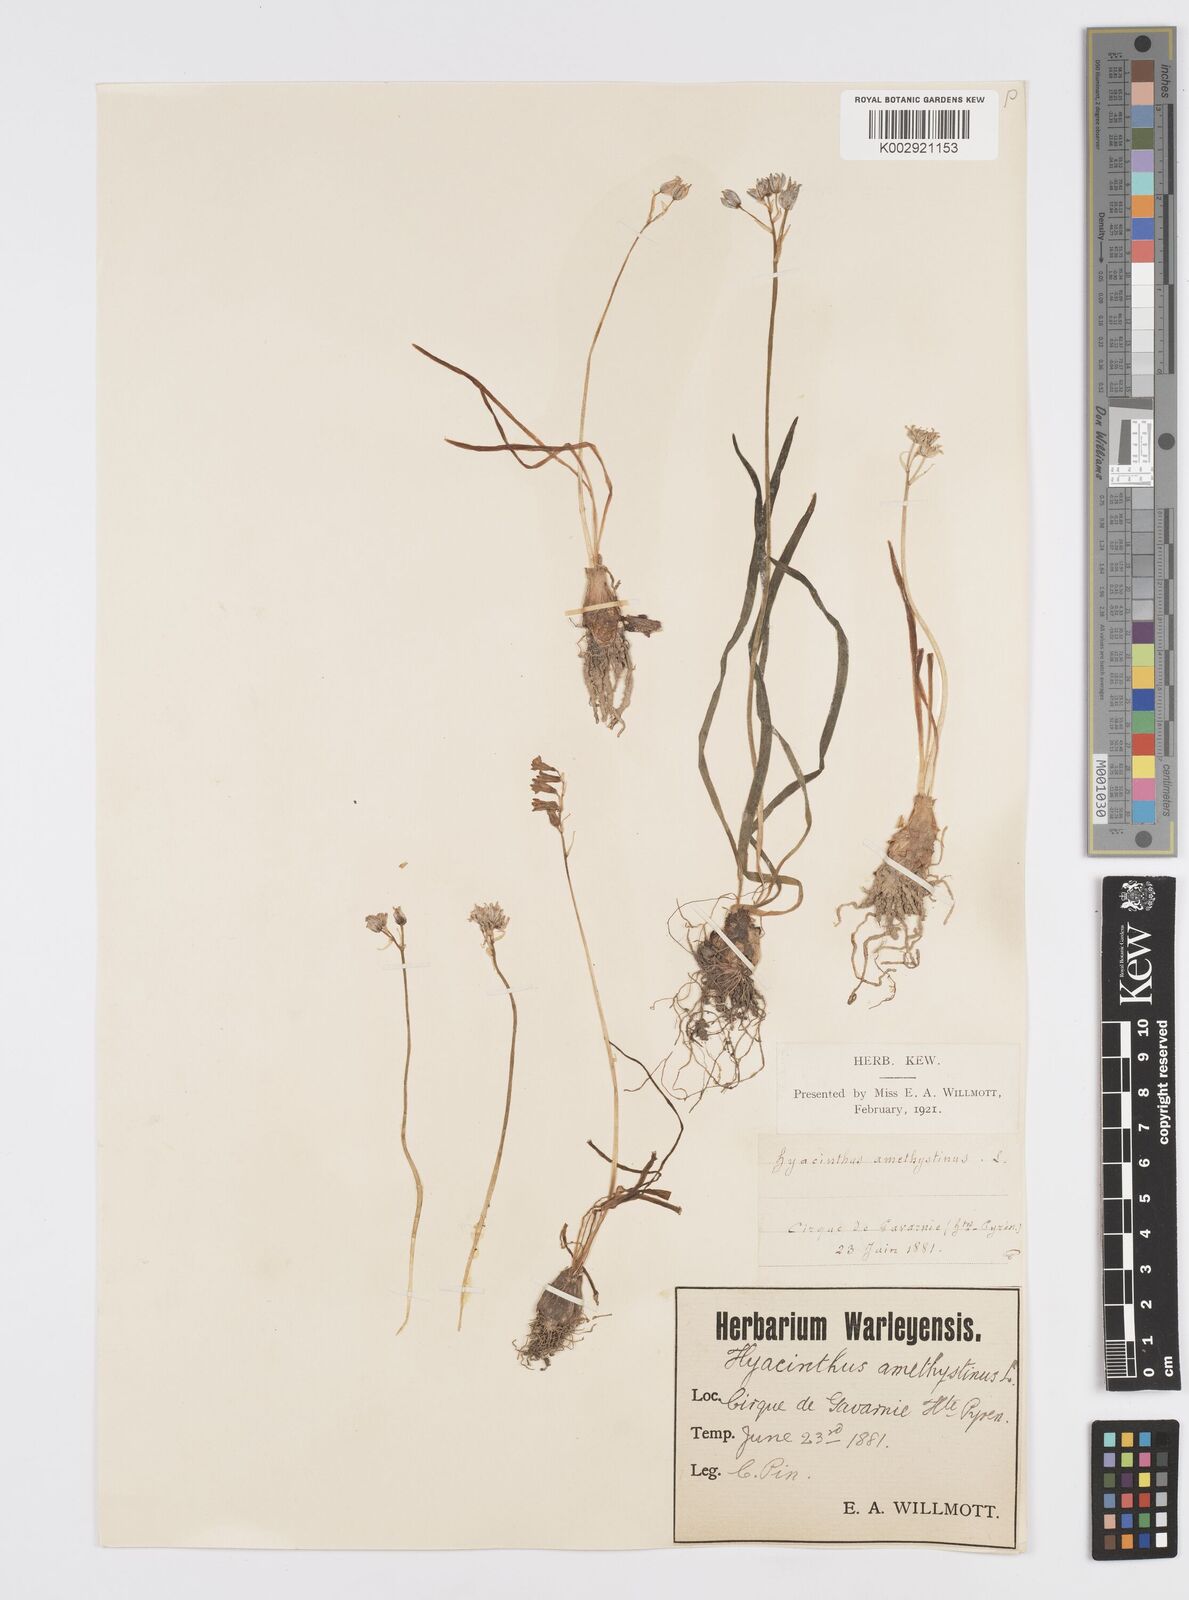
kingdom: Plantae
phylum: Tracheophyta
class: Liliopsida
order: Asparagales
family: Asparagaceae
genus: Brimeura
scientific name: Brimeura amethystina
